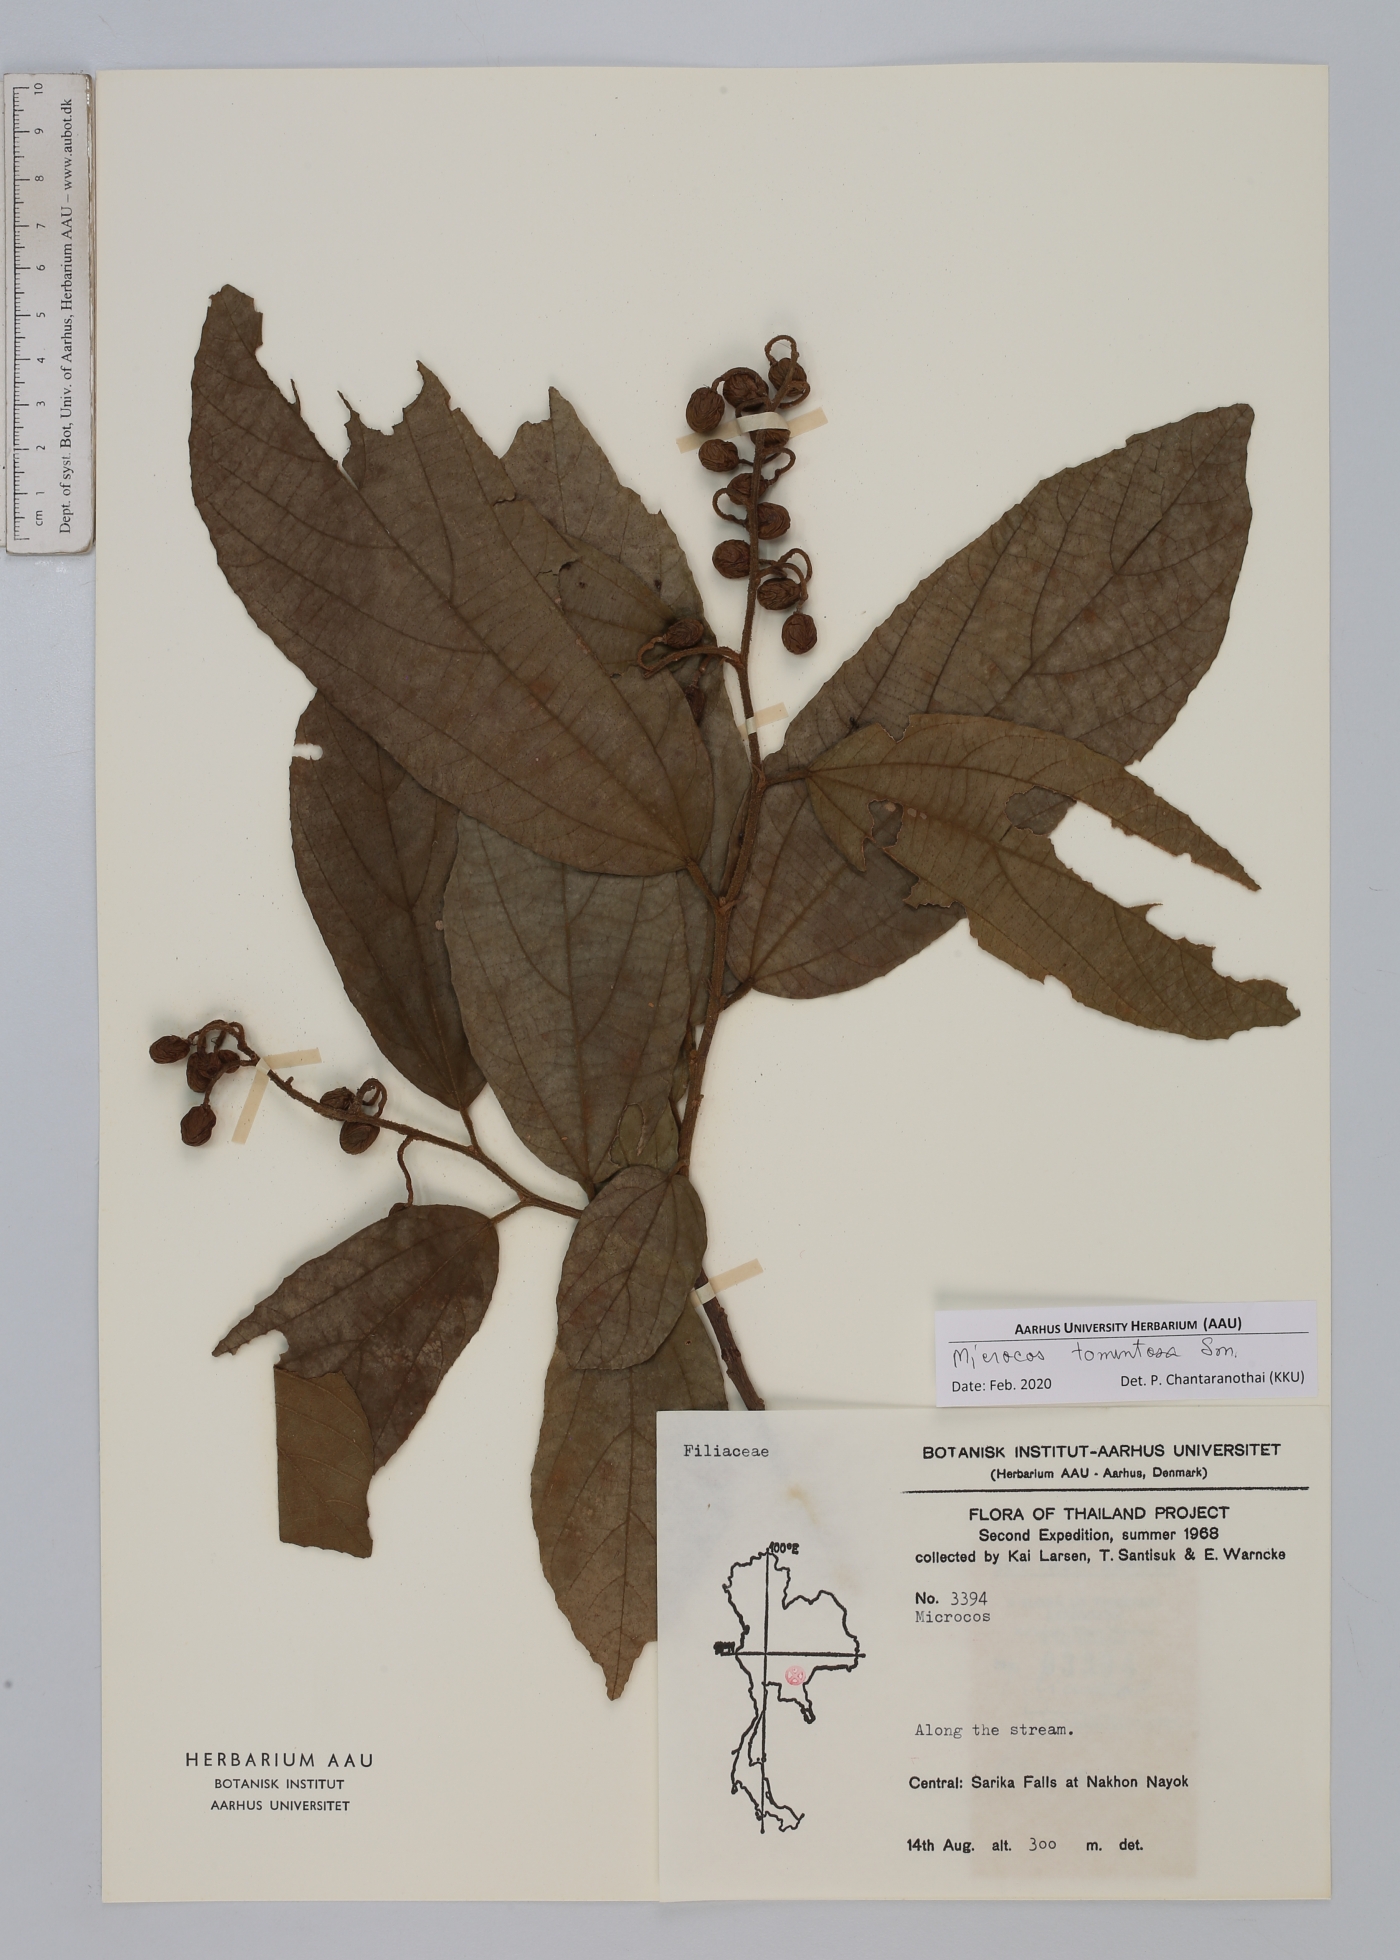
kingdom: Plantae
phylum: Tracheophyta
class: Magnoliopsida
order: Malvales
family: Malvaceae
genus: Microcos
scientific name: Microcos tomentosa
